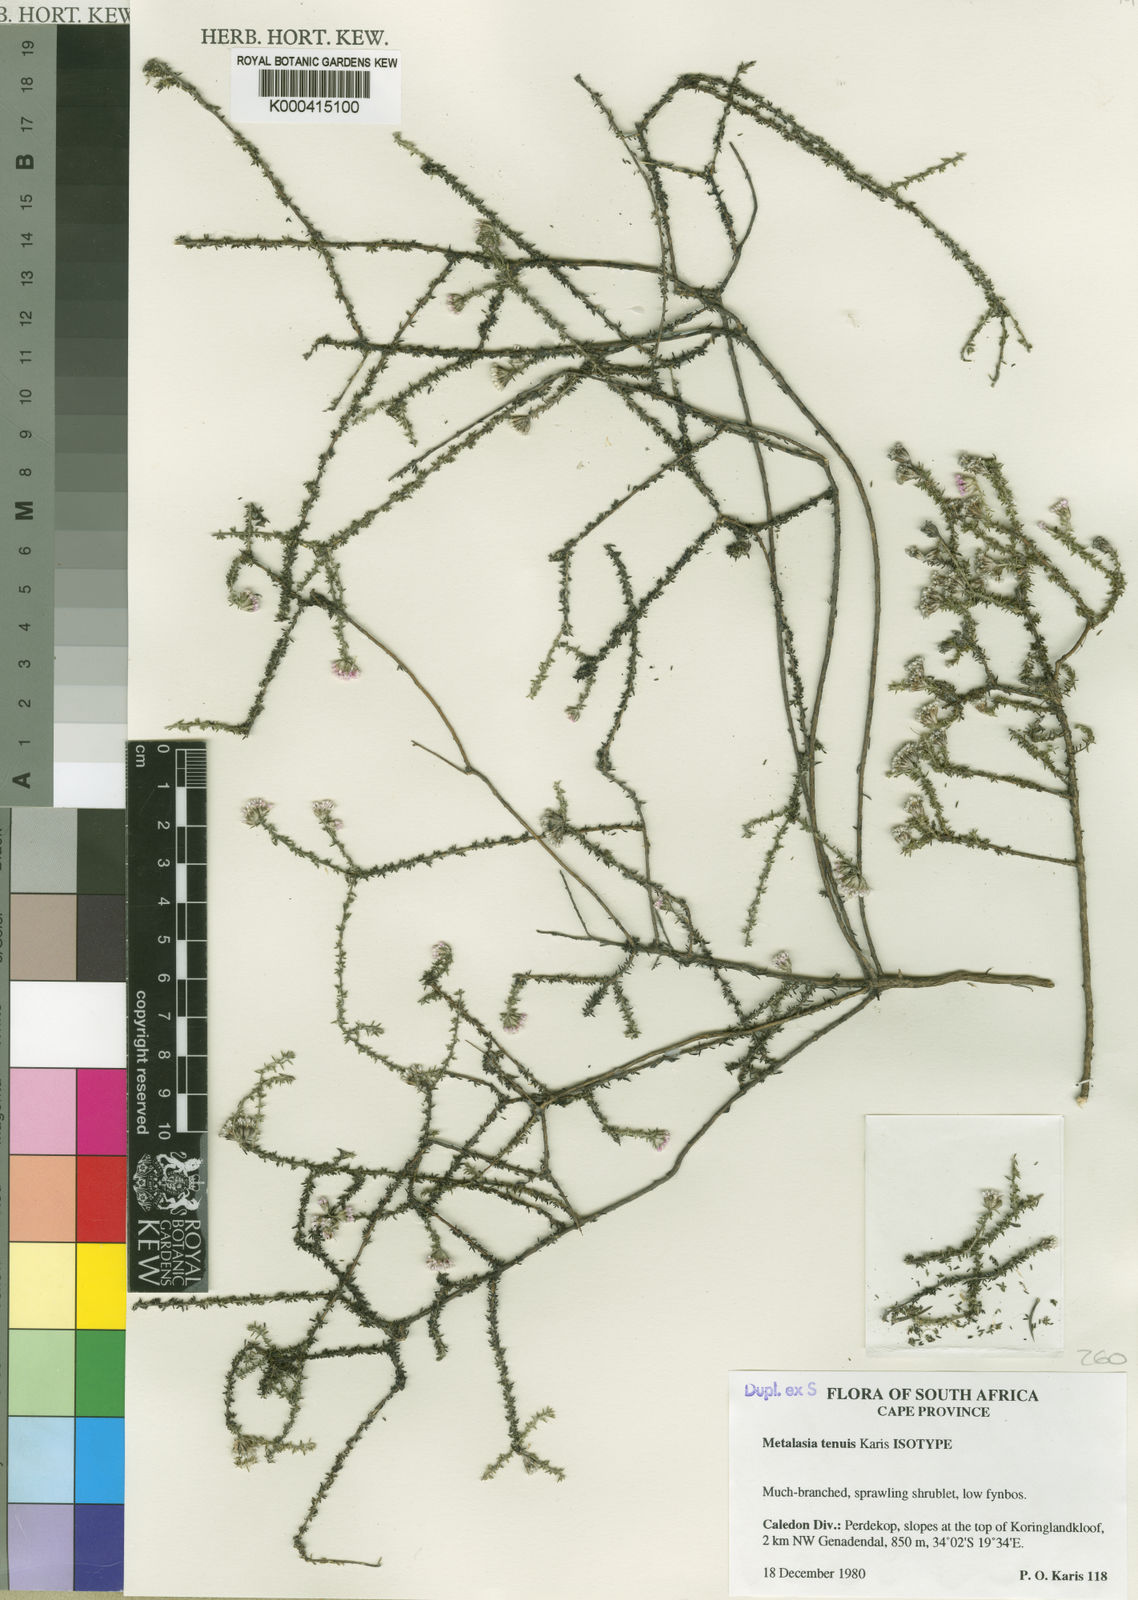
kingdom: Plantae
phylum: Tracheophyta
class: Magnoliopsida
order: Asterales
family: Asteraceae
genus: Metalasia
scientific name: Metalasia tenuis
